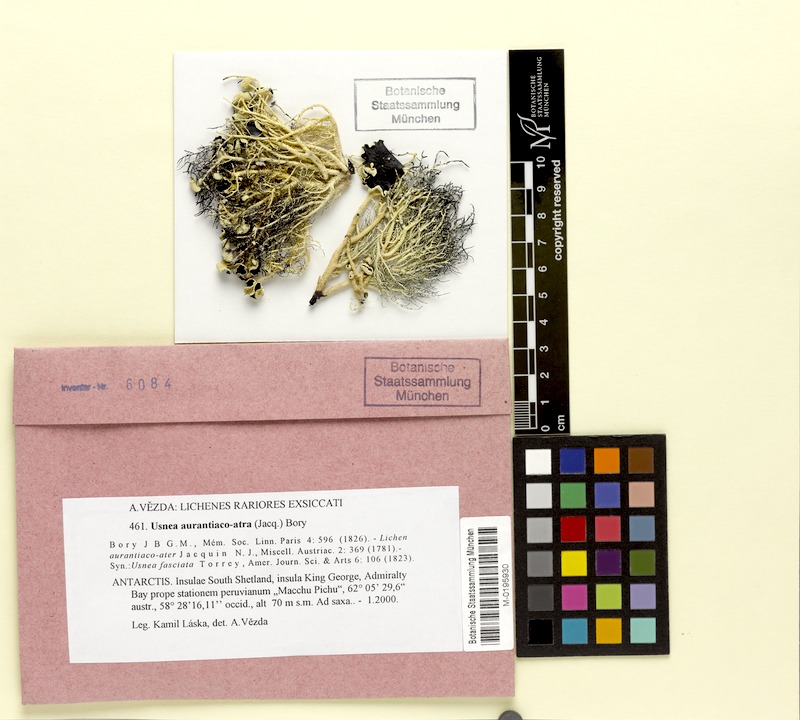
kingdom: Fungi
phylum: Ascomycota
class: Lecanoromycetes
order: Lecanorales
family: Parmeliaceae
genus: Usnea
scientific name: Usnea aurantiacoatra
